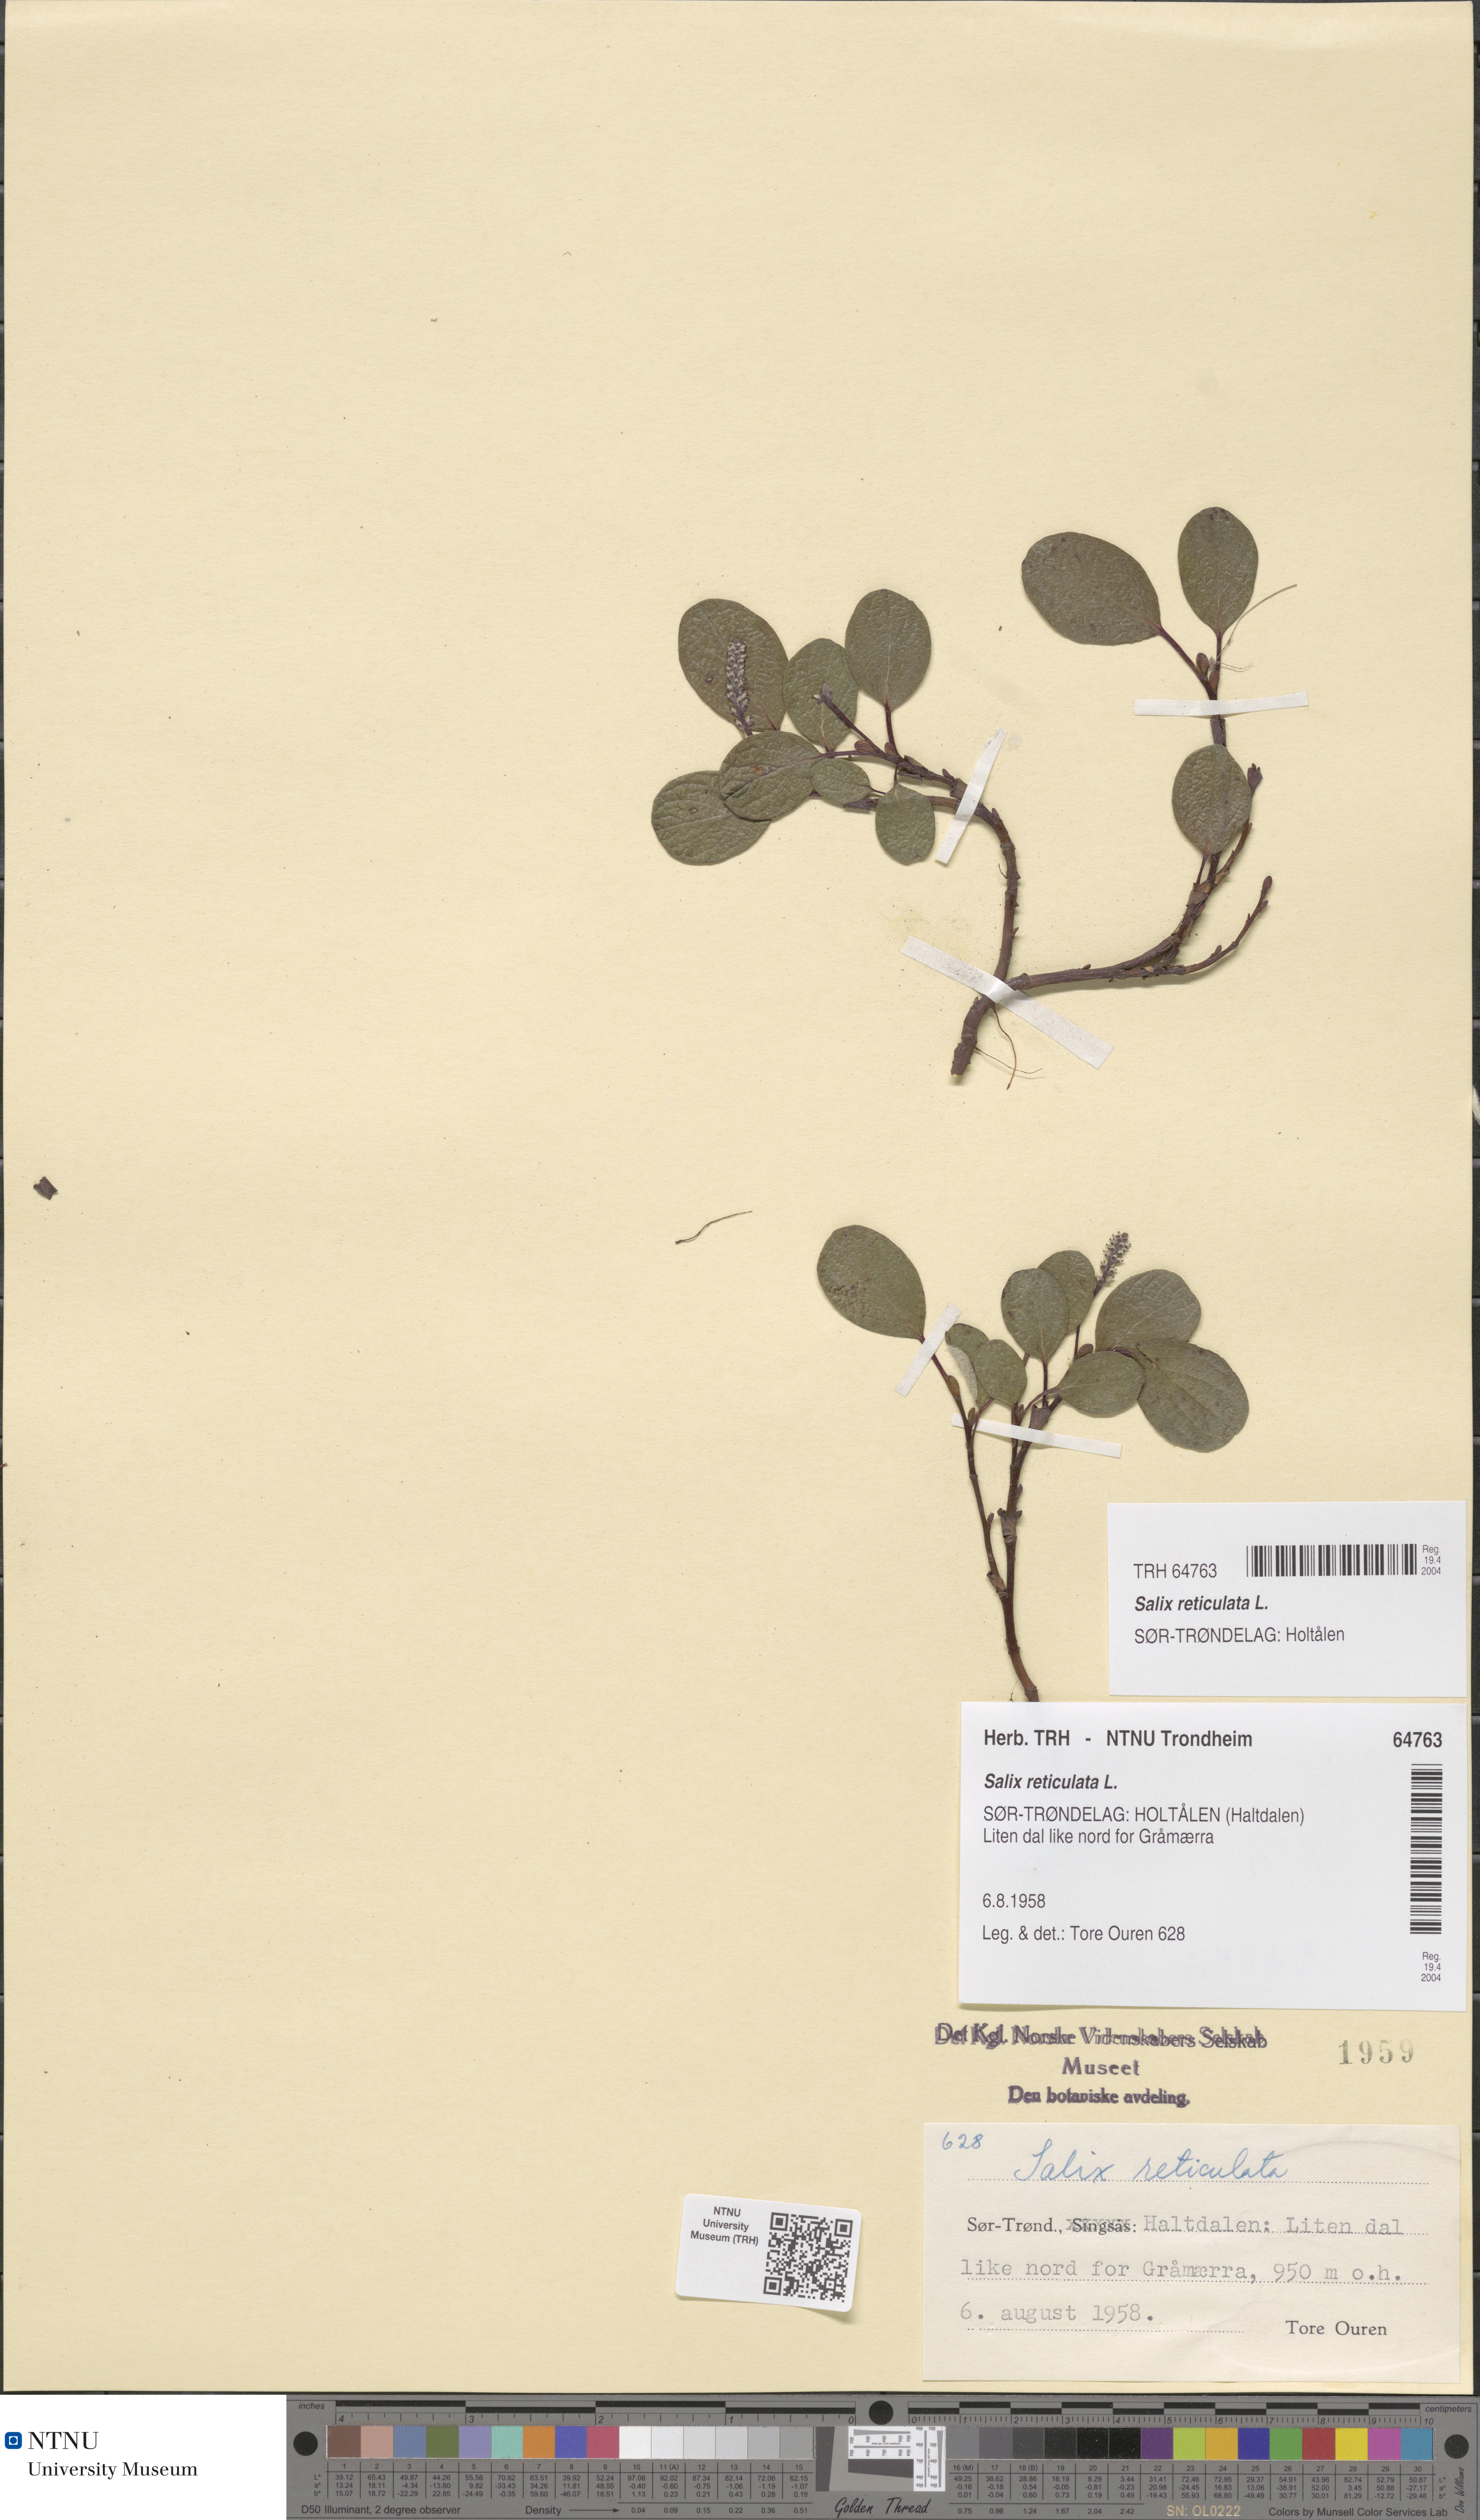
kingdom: Plantae
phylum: Tracheophyta
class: Magnoliopsida
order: Malpighiales
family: Salicaceae
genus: Salix
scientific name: Salix reticulata
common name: Net-leaved willow
